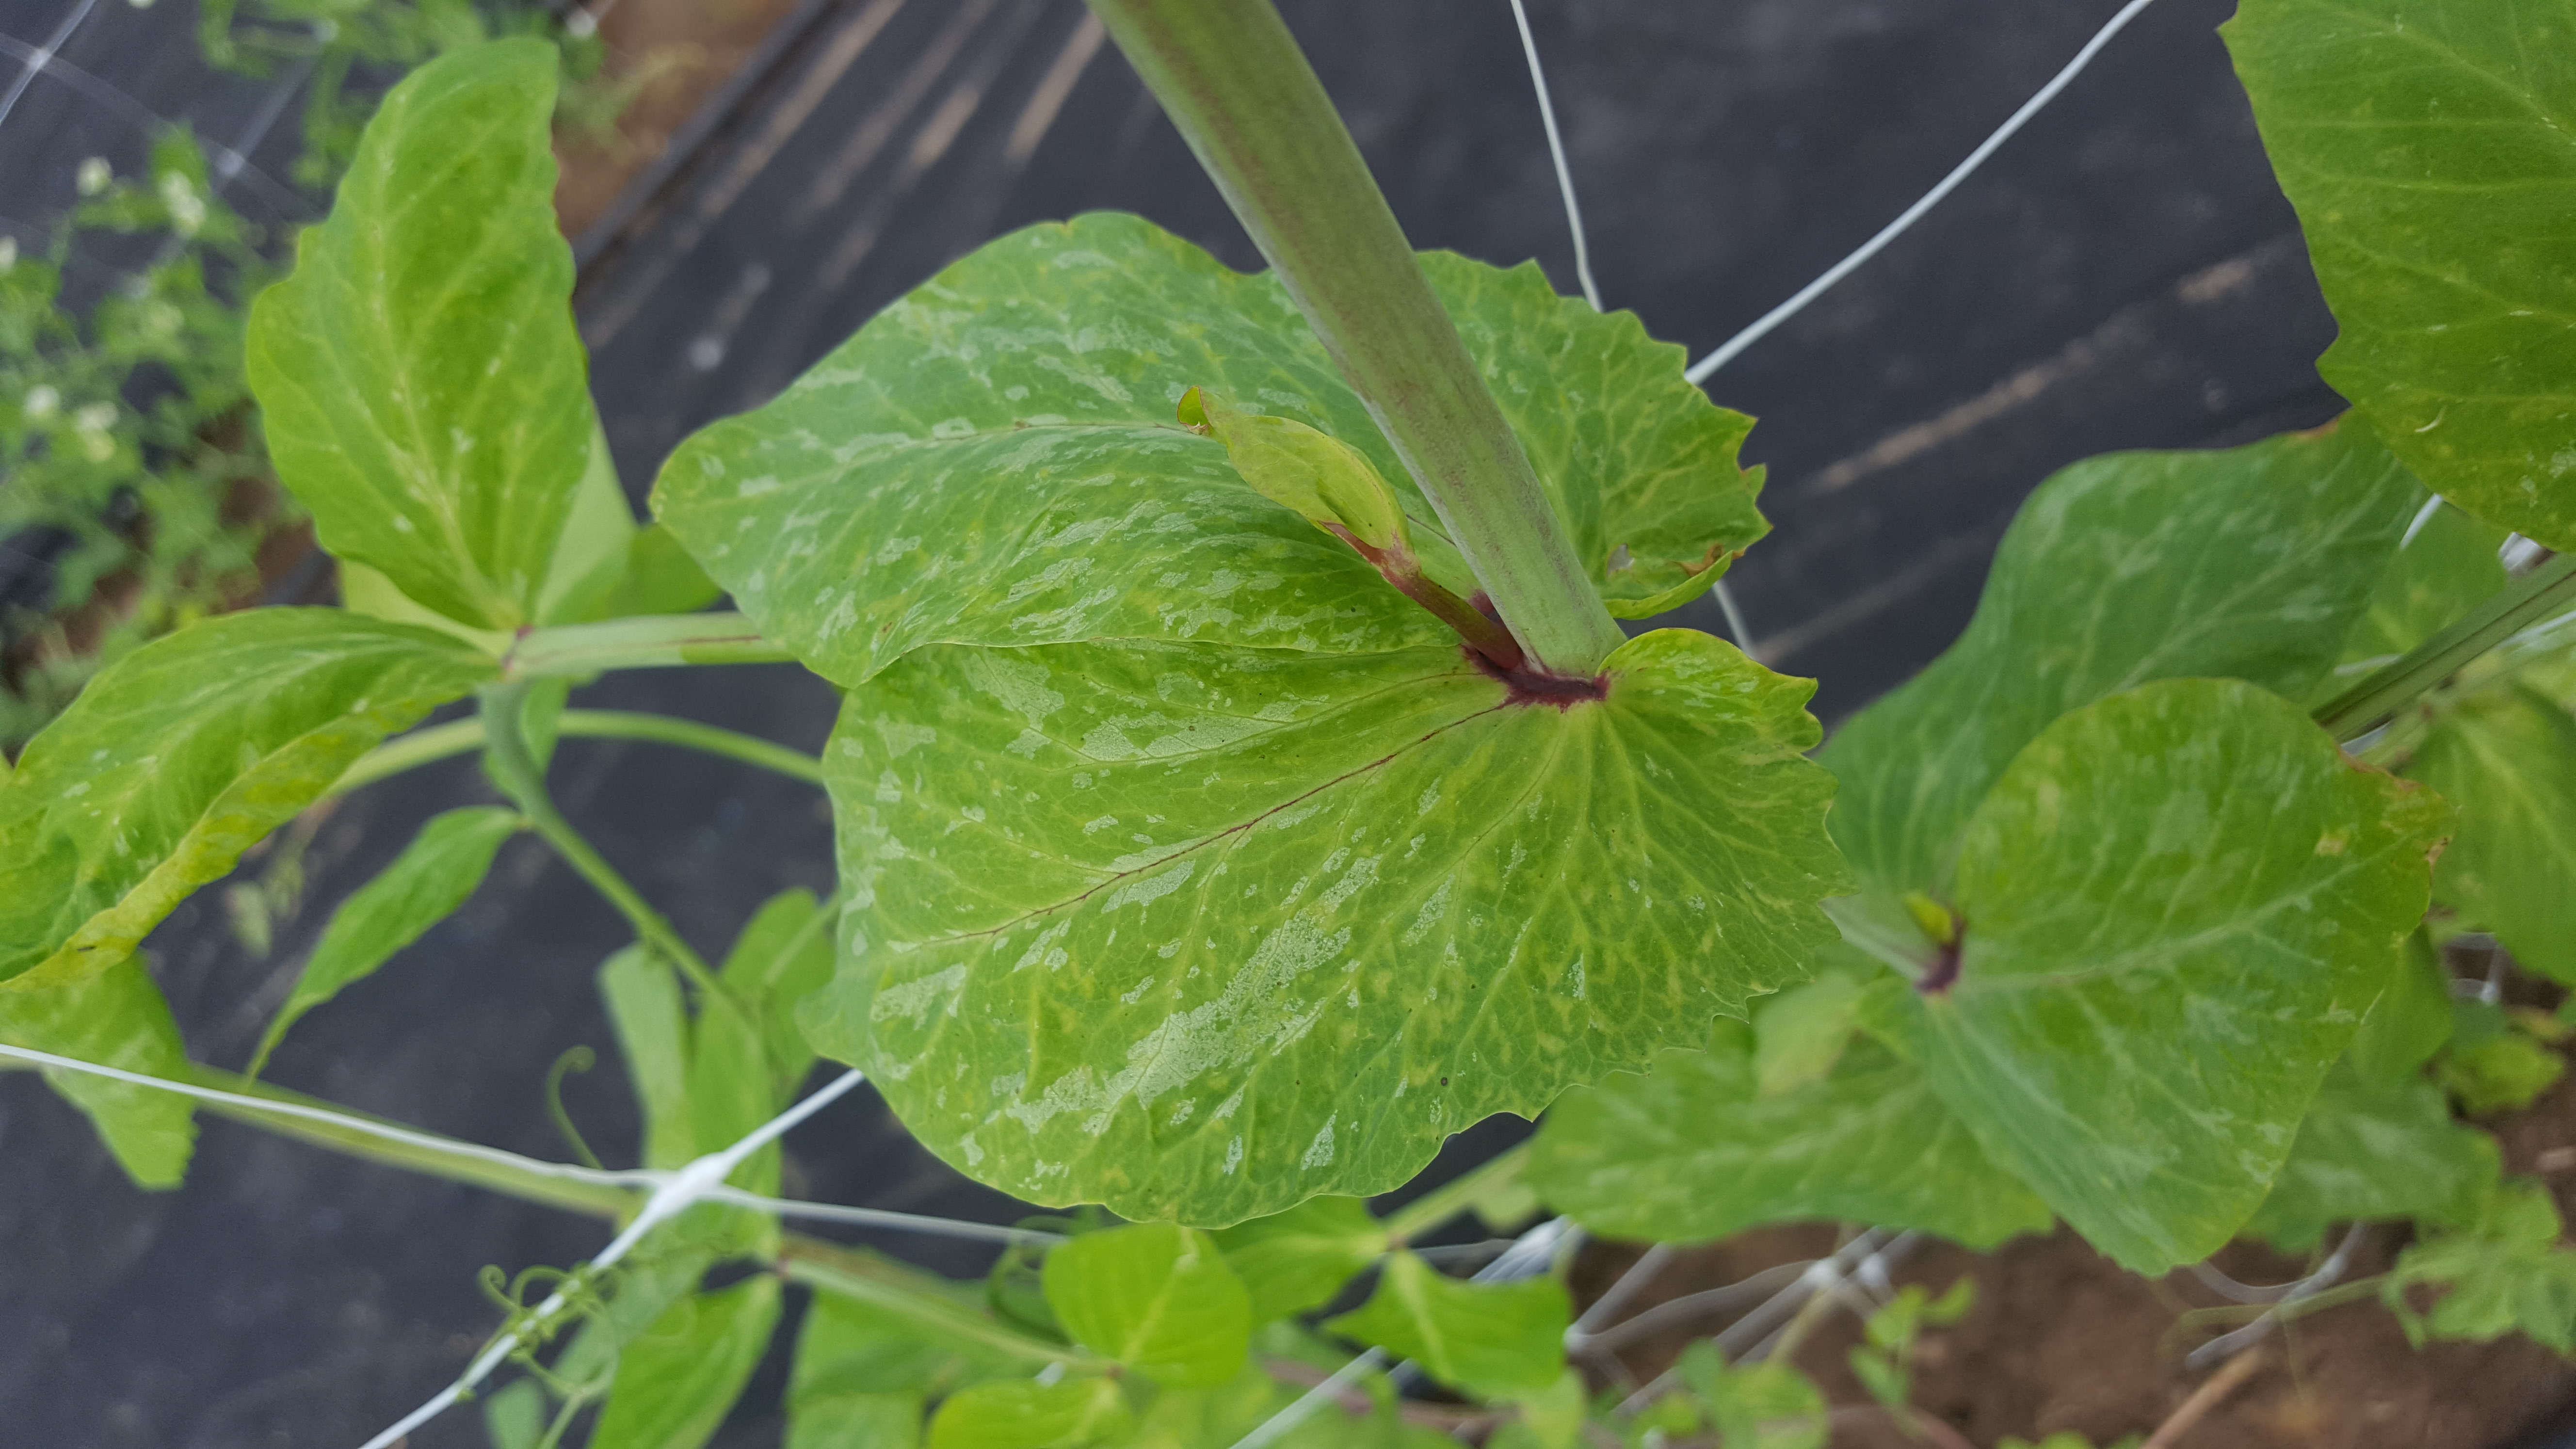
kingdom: Plantae
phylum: Tracheophyta
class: Magnoliopsida
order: Fabales
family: Fabaceae
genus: Lathyrus
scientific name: Lathyrus oleraceus
